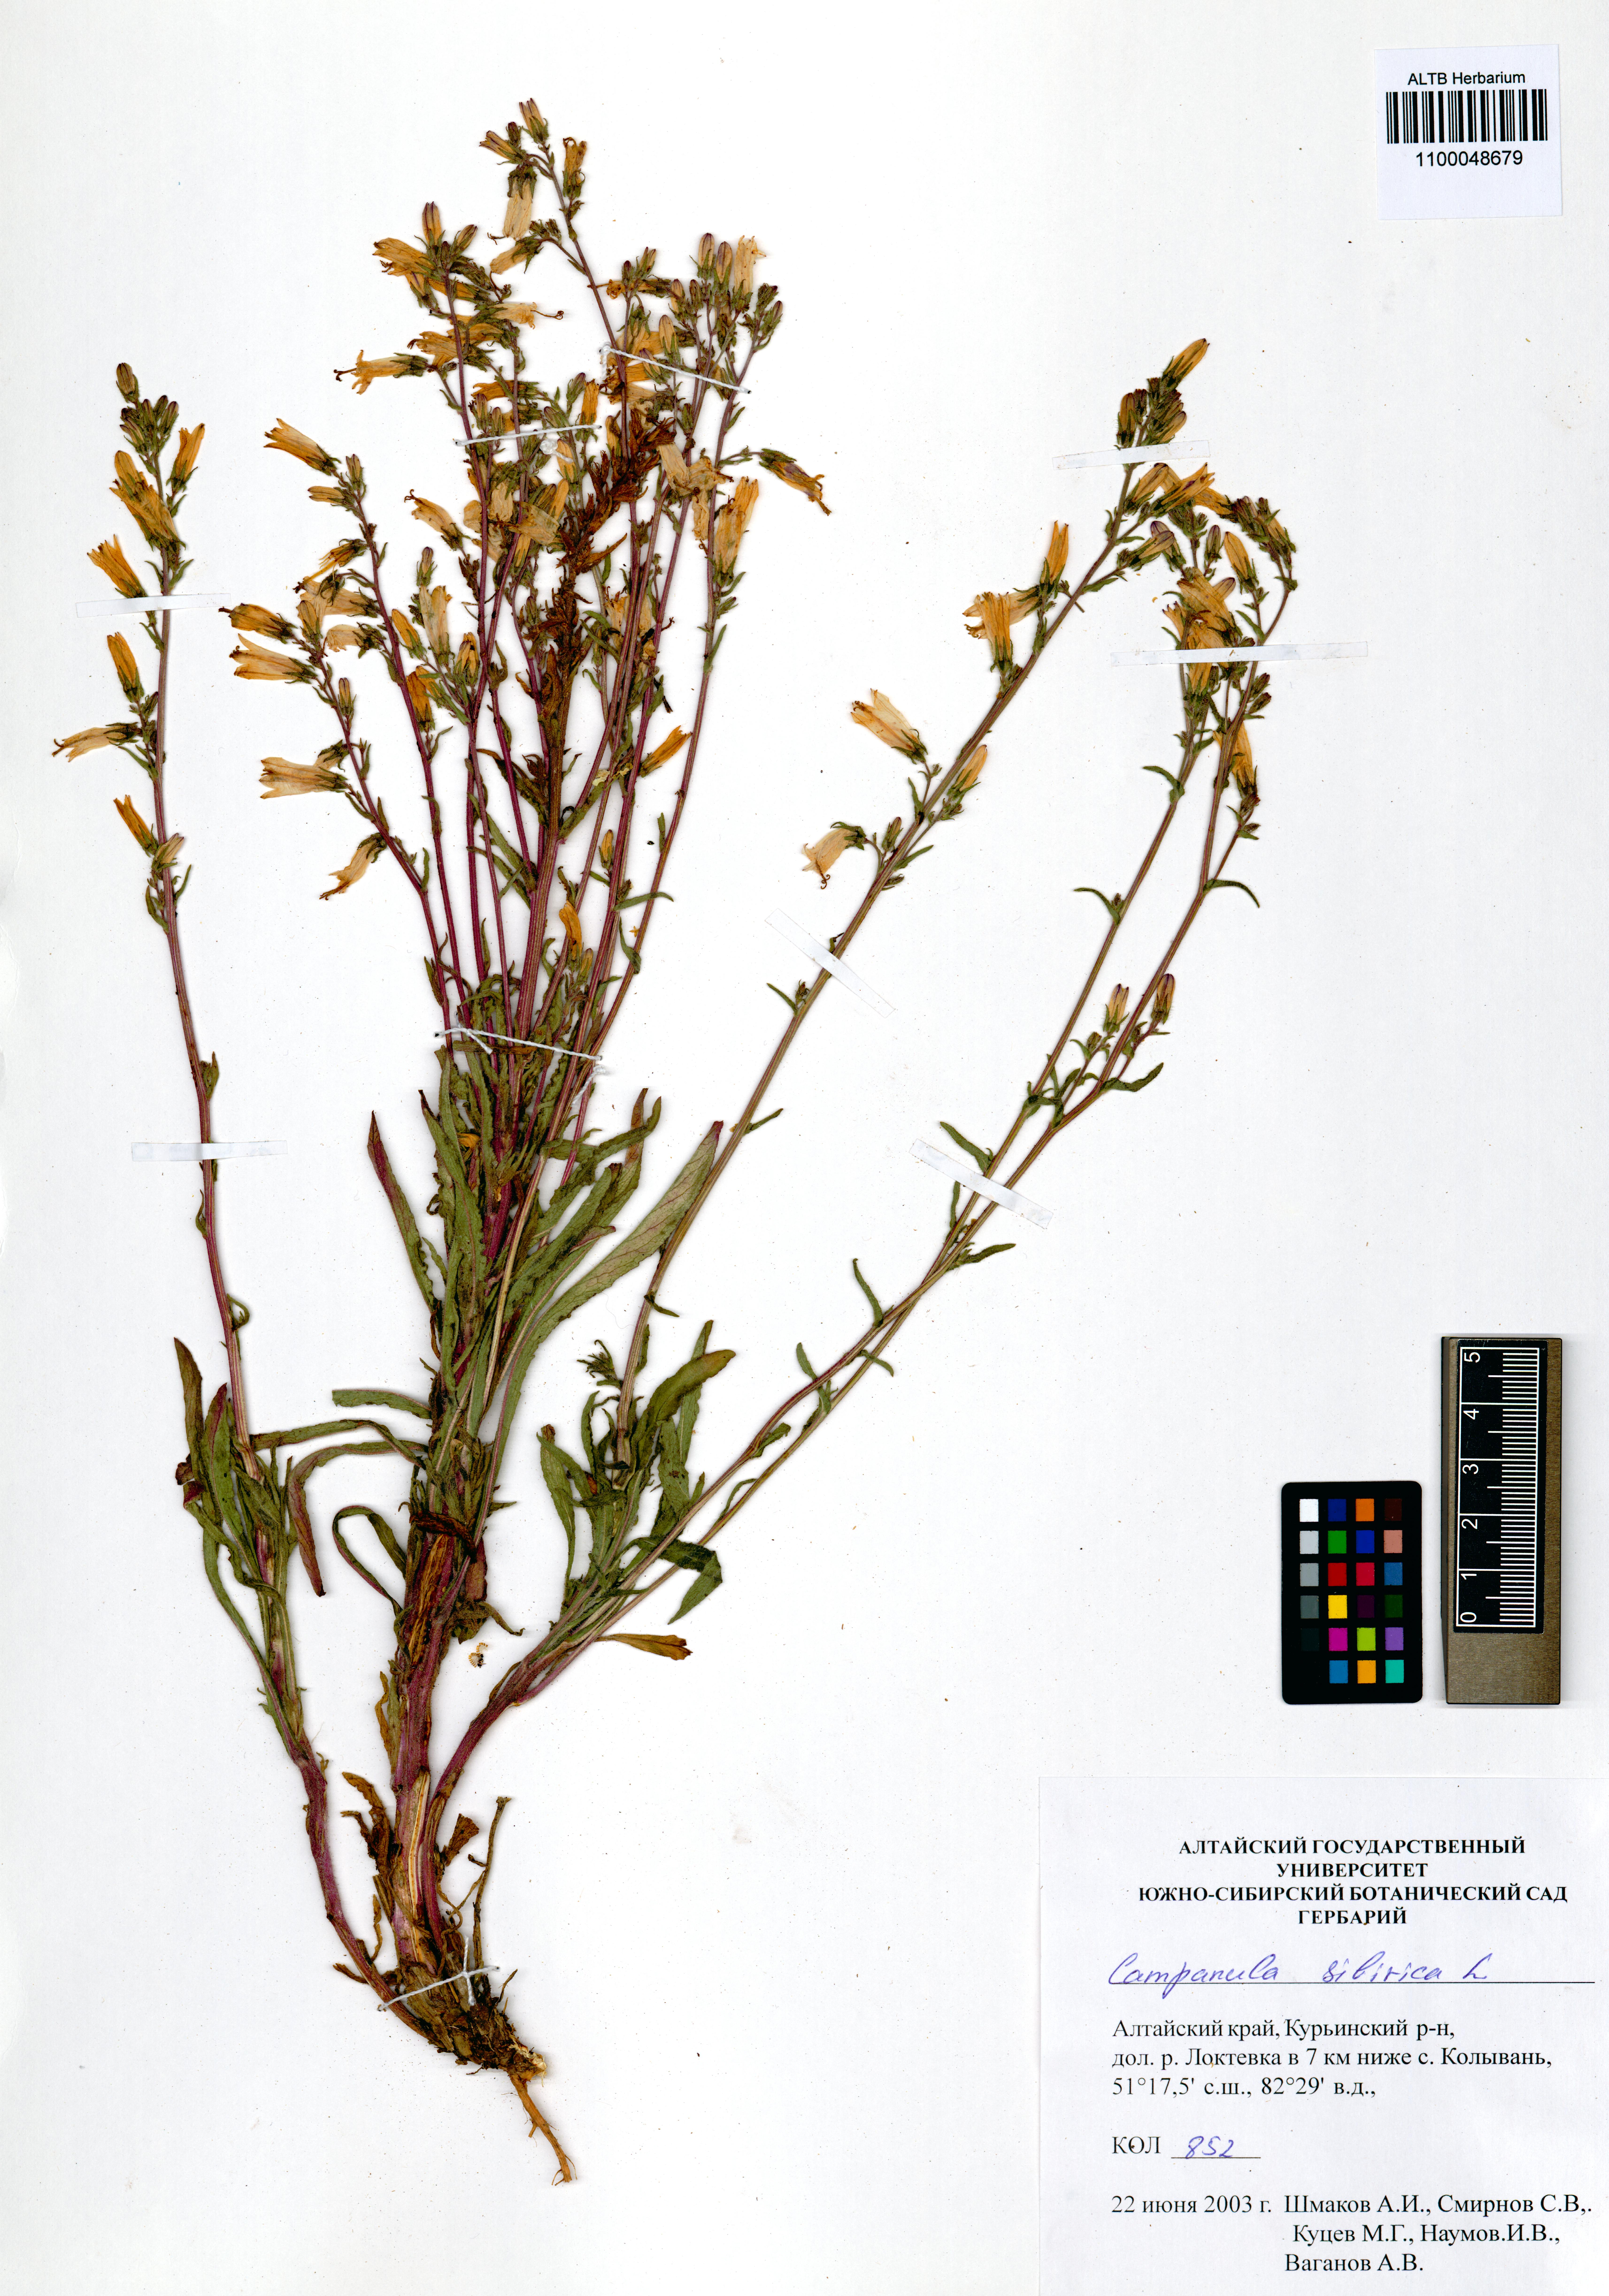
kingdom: Plantae
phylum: Tracheophyta
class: Magnoliopsida
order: Asterales
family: Campanulaceae
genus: Campanula
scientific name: Campanula sibirica
